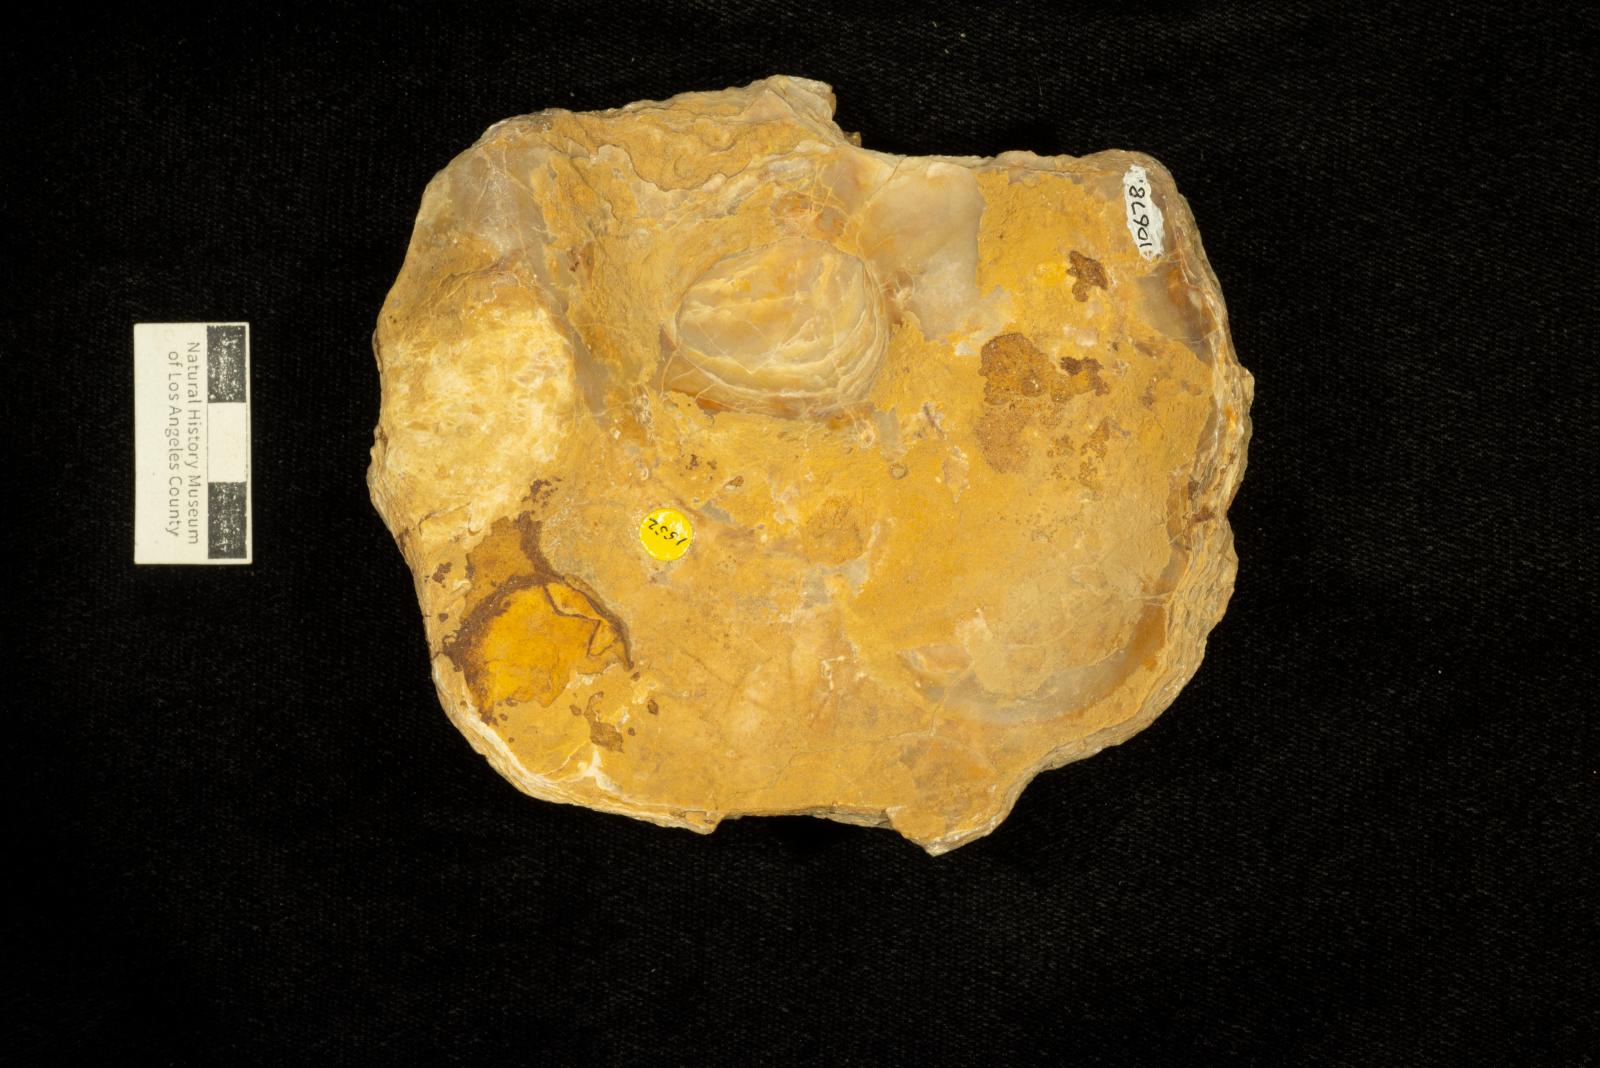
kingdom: Animalia
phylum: Mollusca
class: Bivalvia
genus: Phygraea
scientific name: Phygraea
